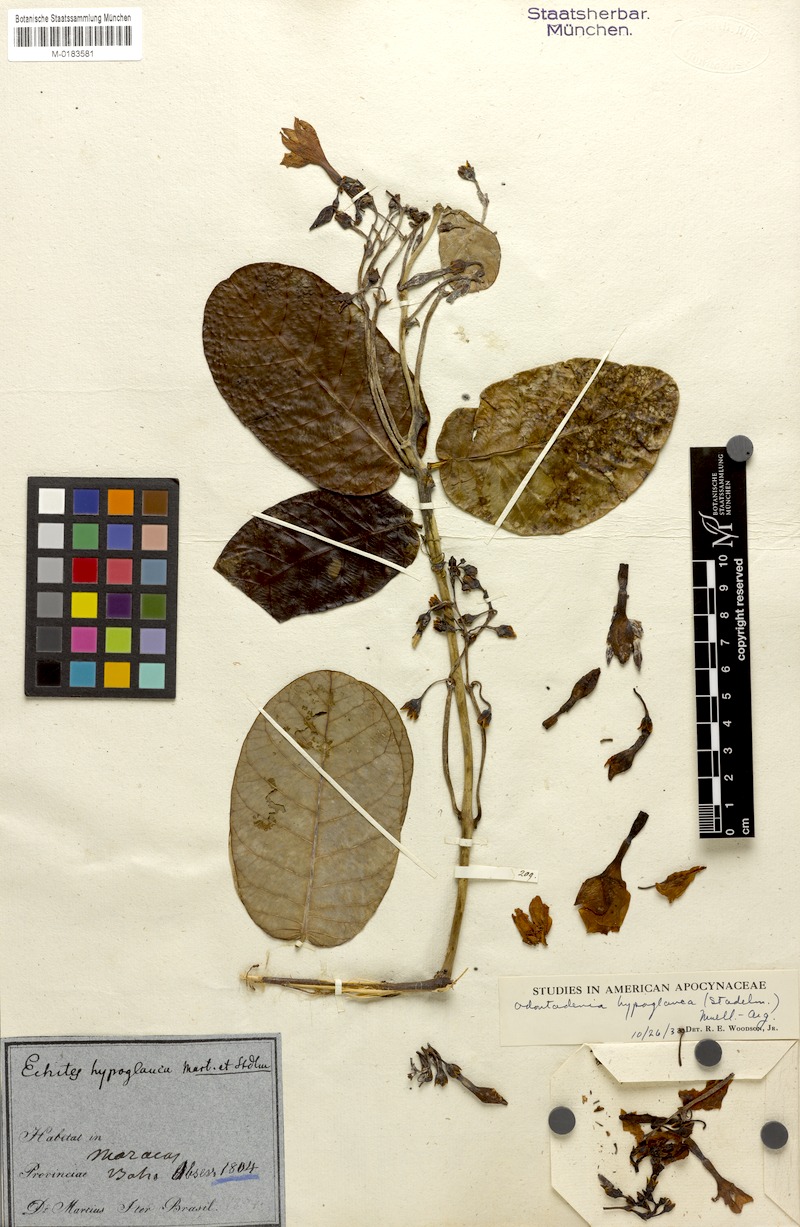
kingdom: Plantae
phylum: Tracheophyta
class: Magnoliopsida
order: Gentianales
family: Apocynaceae
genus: Odontadenia
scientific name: Odontadenia hypoglauca
